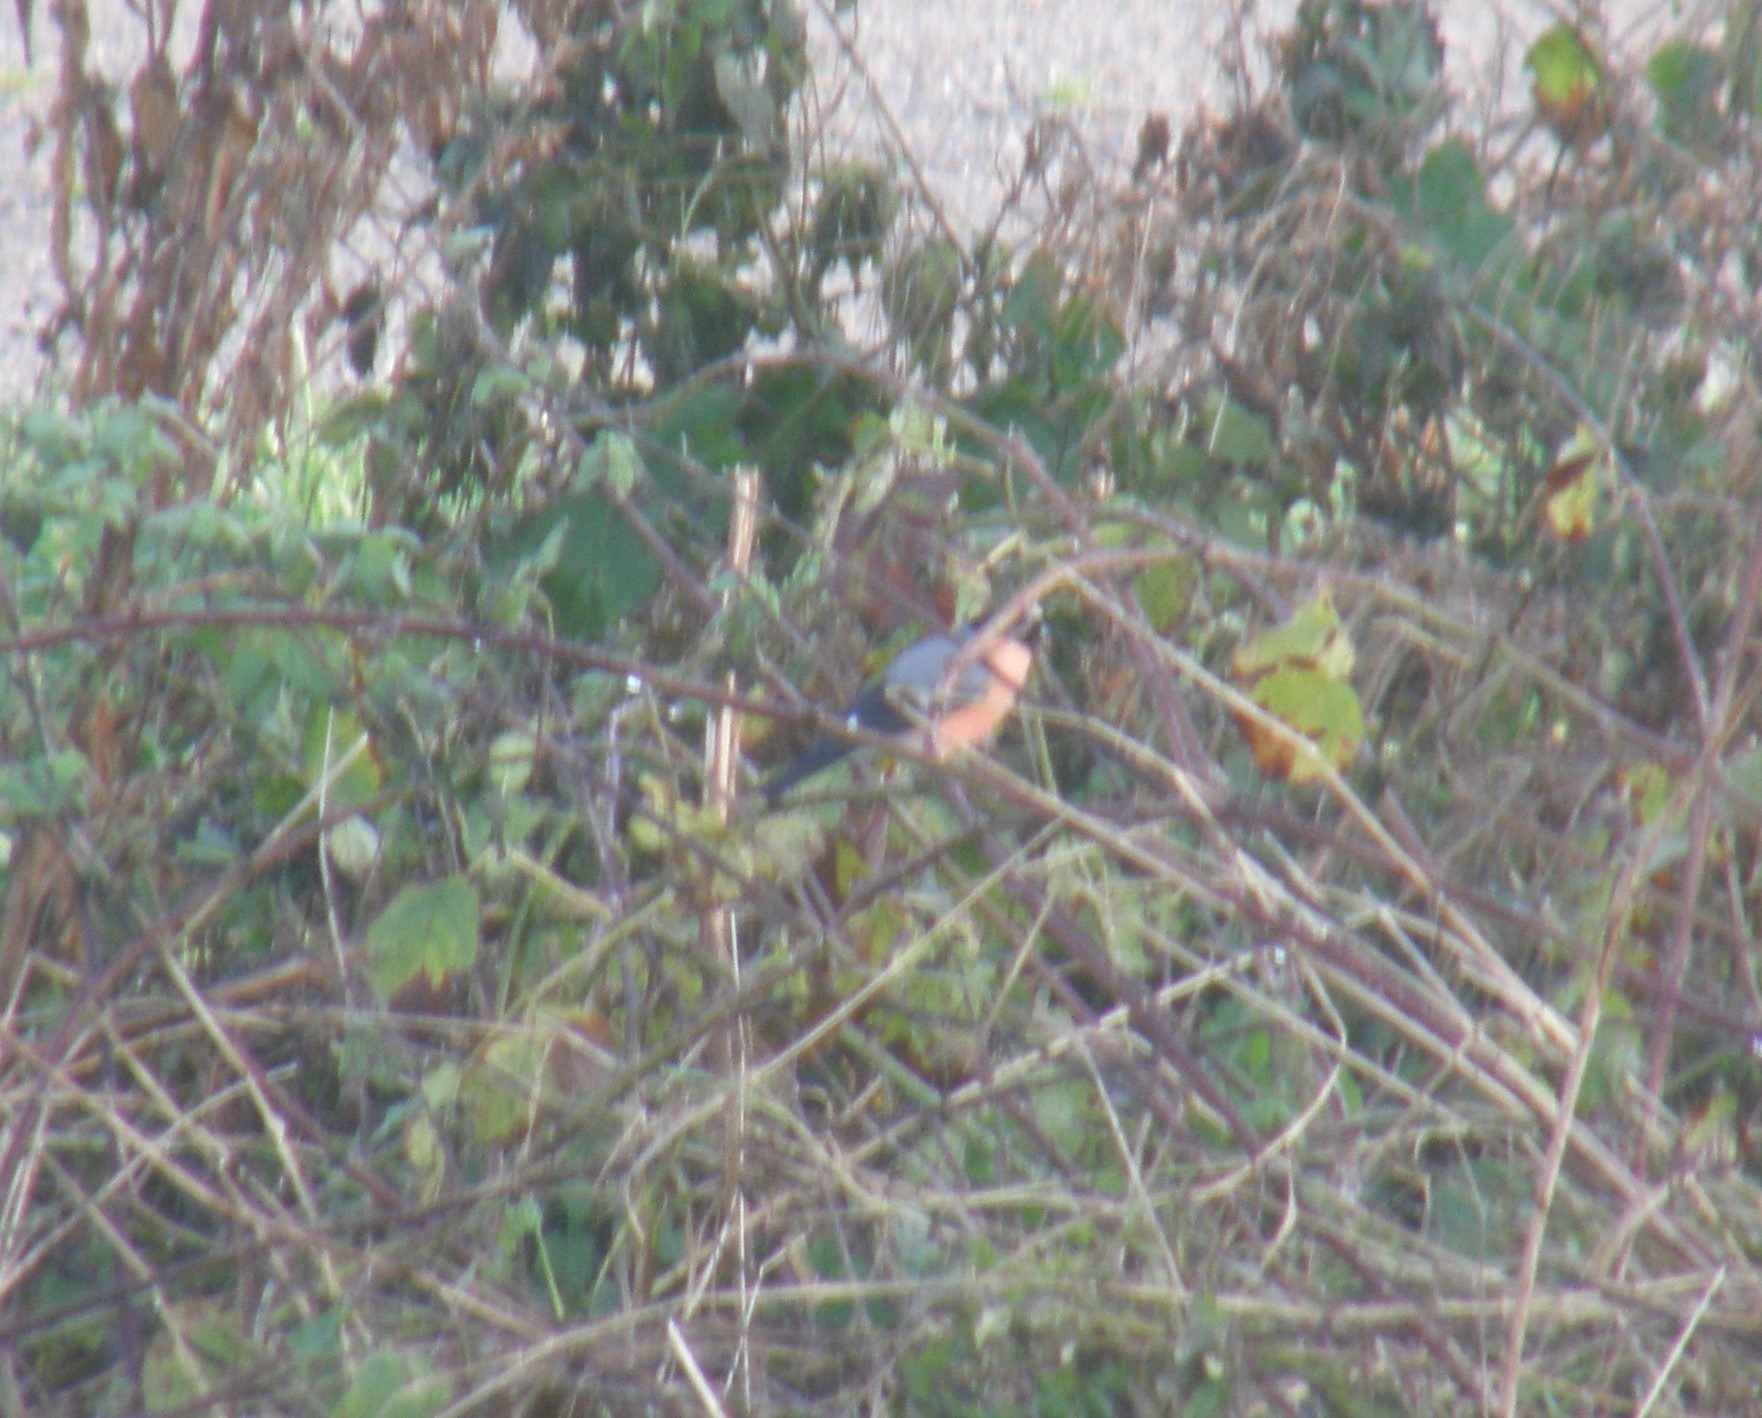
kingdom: Animalia
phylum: Chordata
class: Aves
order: Passeriformes
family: Fringillidae
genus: Pyrrhula
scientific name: Pyrrhula pyrrhula
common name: Dompap
